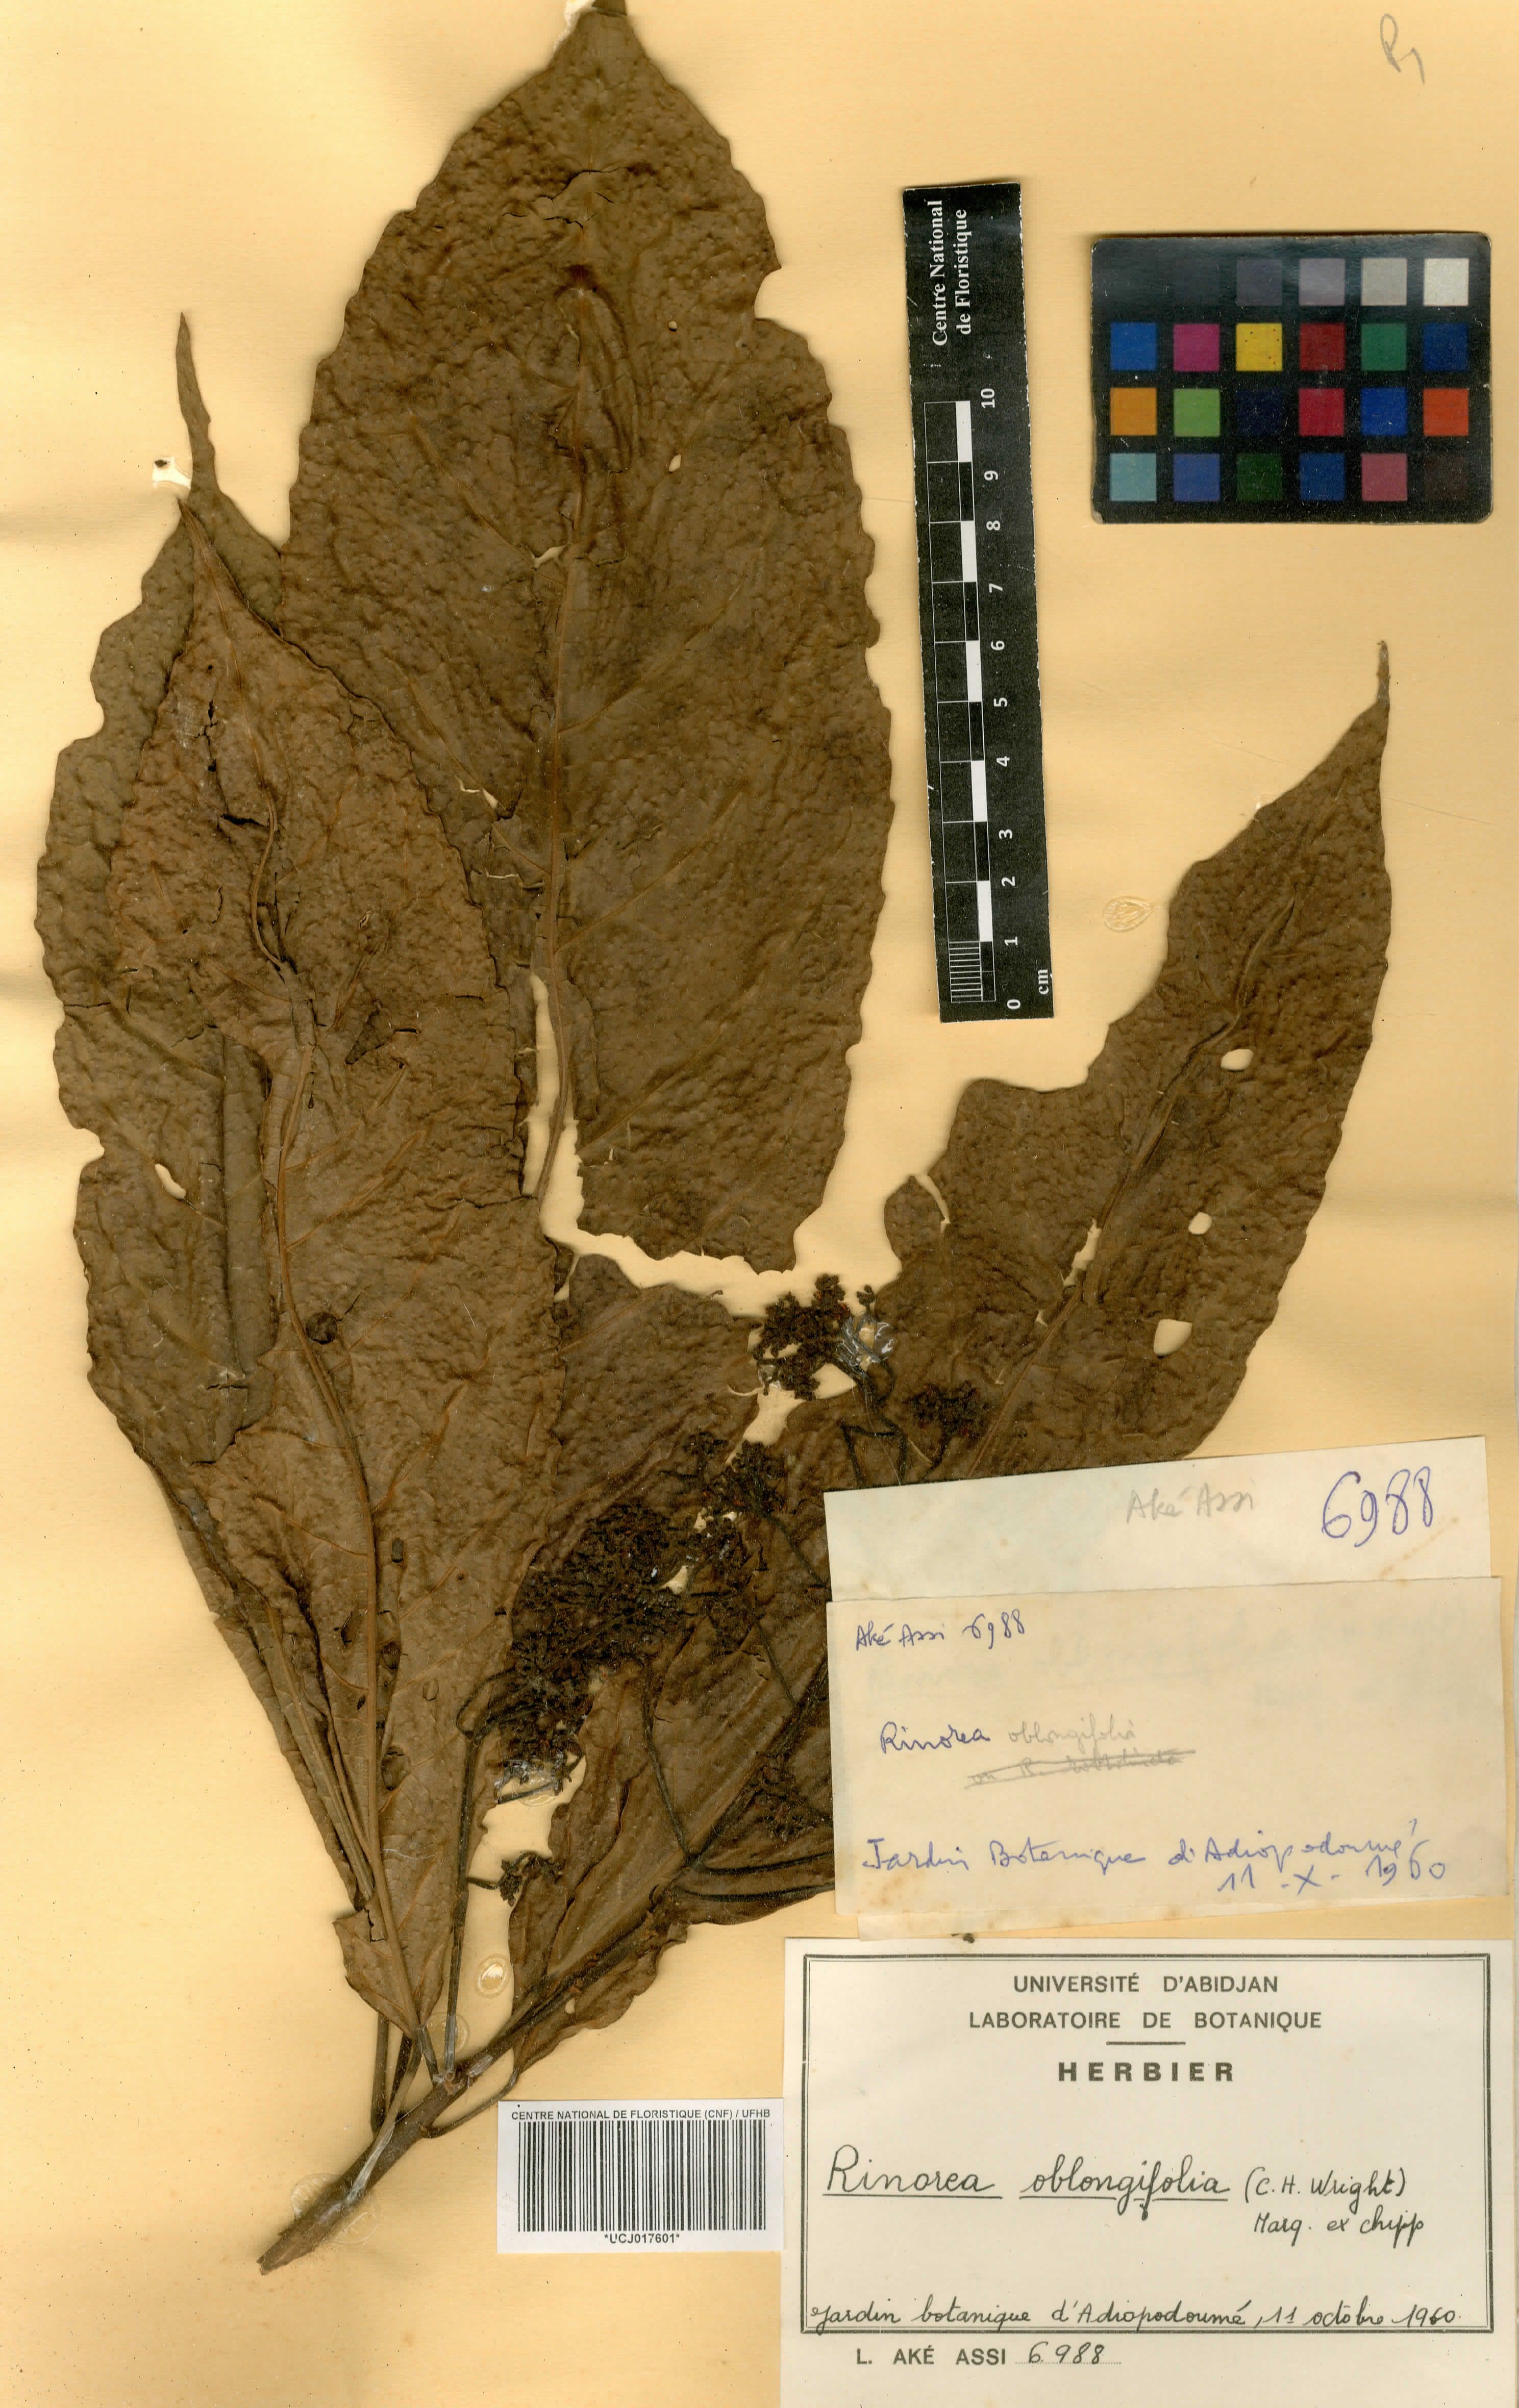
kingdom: Plantae
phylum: Tracheophyta
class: Magnoliopsida
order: Apiales
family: Pittosporaceae
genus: Marianthus
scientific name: Marianthus coeruleopunctatus
